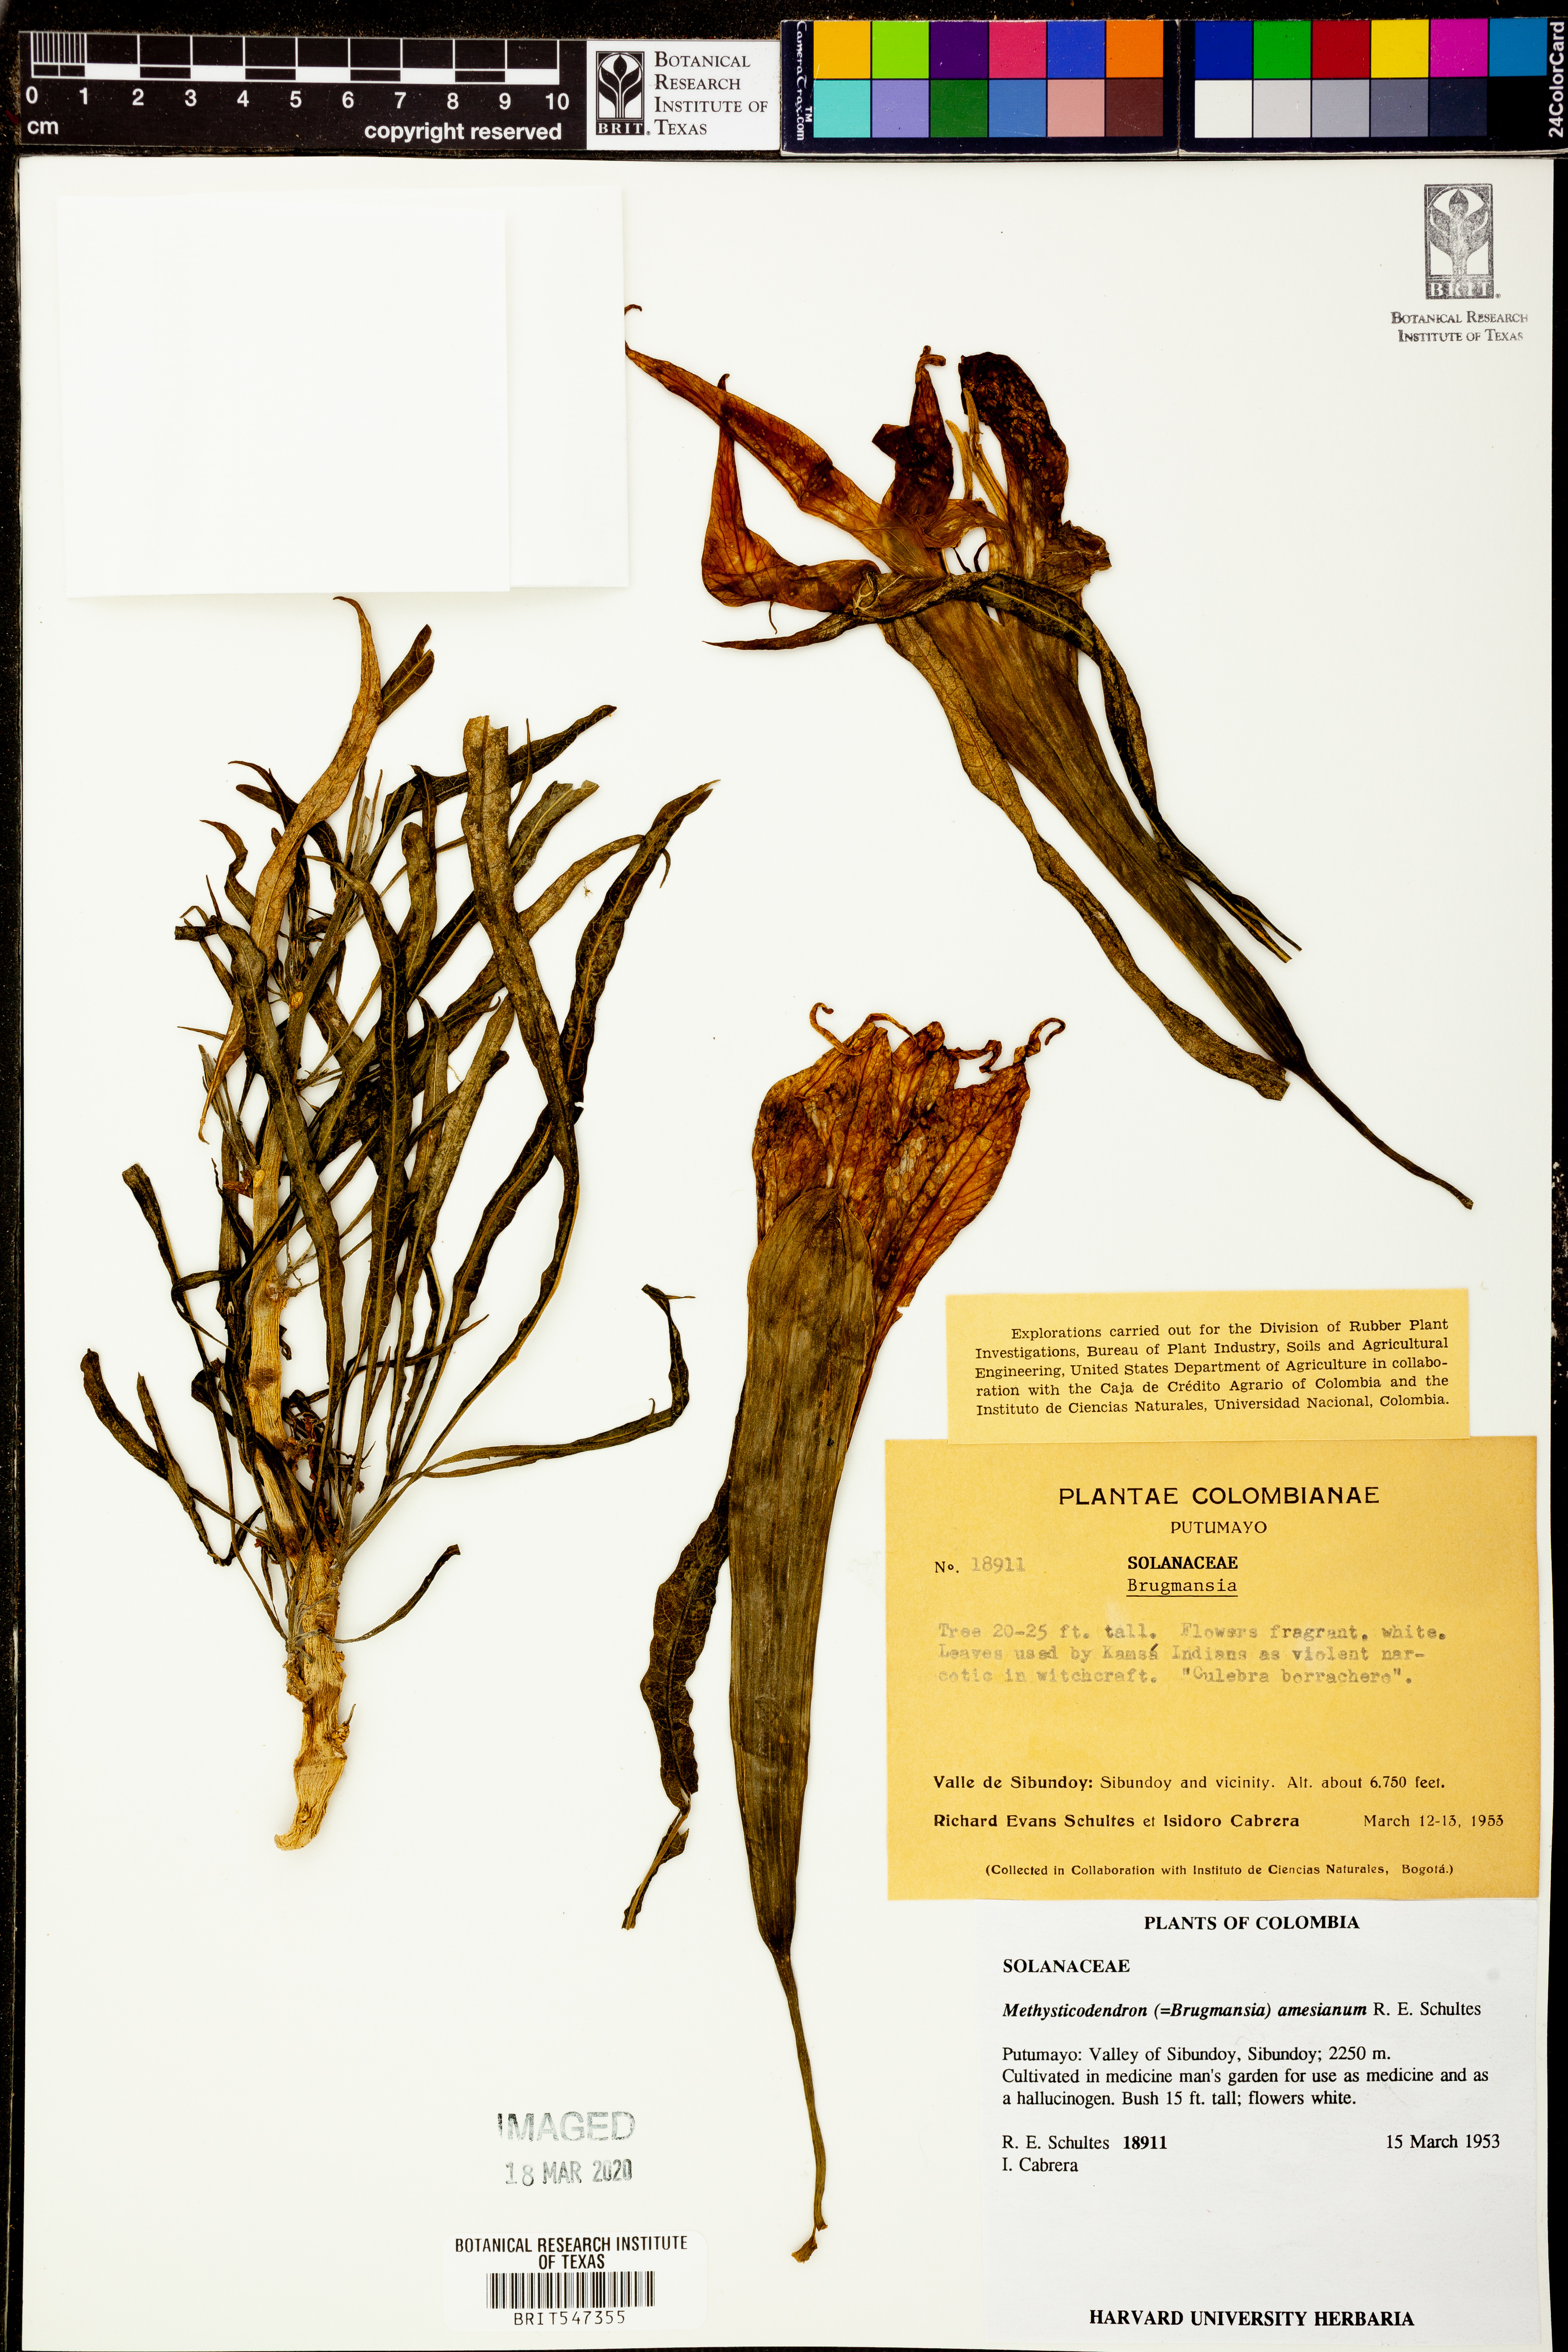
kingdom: Plantae
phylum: Tracheophyta
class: Magnoliopsida
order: Solanales
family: Solanaceae
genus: Brugmansia
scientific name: Brugmansia
